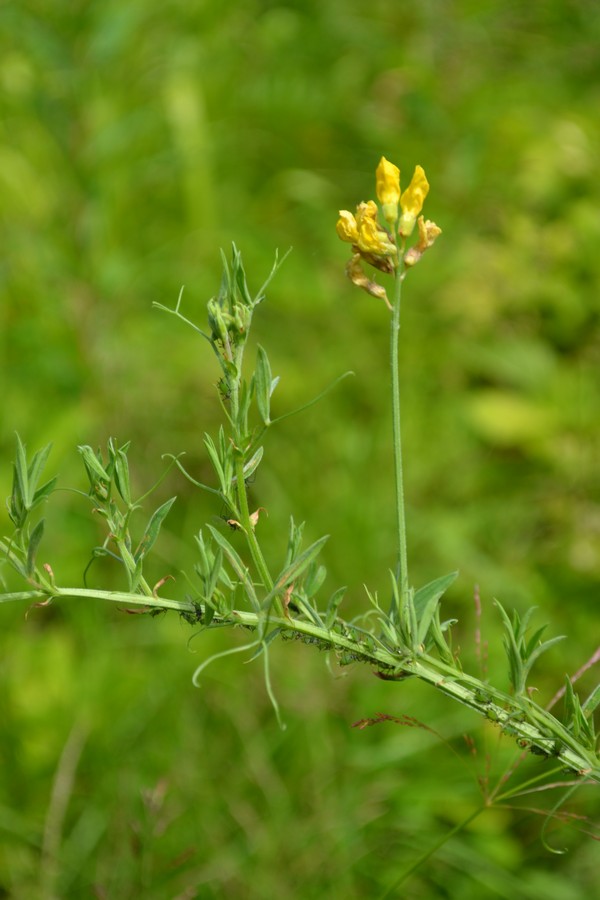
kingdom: Plantae
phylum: Tracheophyta
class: Magnoliopsida
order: Fabales
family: Fabaceae
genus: Lotus
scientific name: Lotus corniculatus
